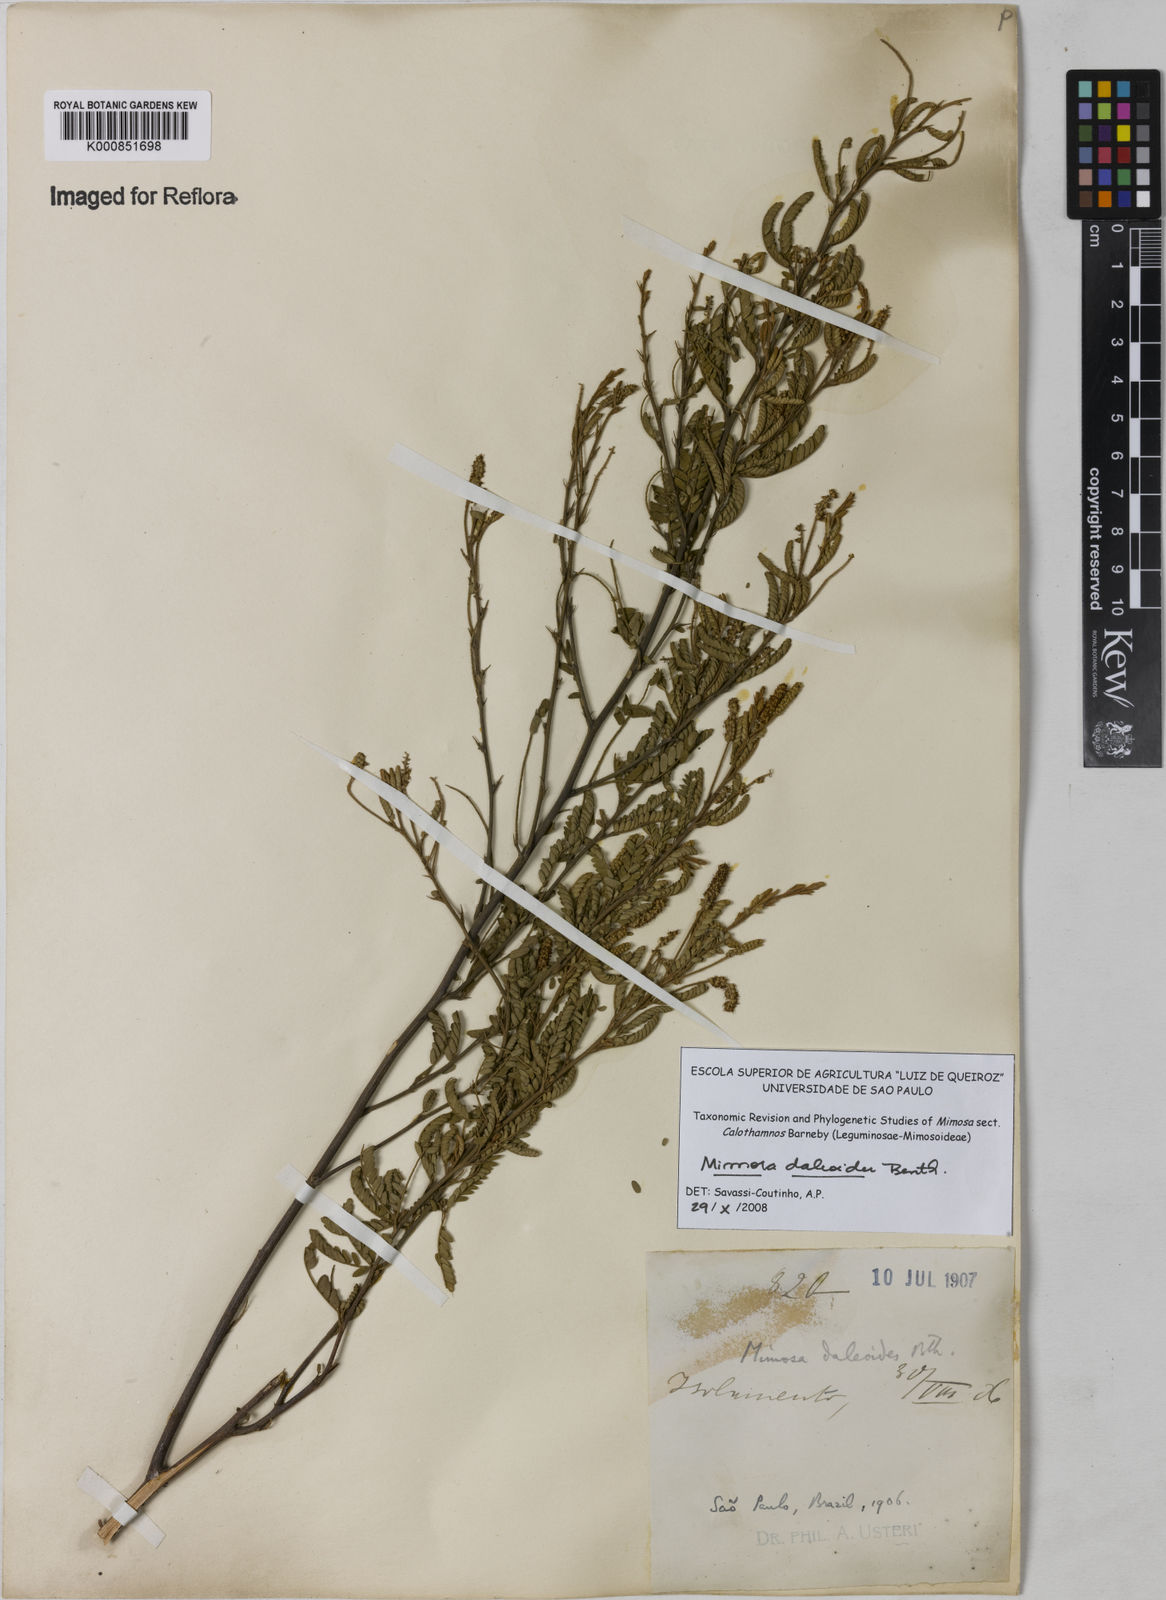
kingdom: Plantae
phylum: Tracheophyta
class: Magnoliopsida
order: Fabales
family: Fabaceae
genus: Mimosa
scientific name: Mimosa daleoides
